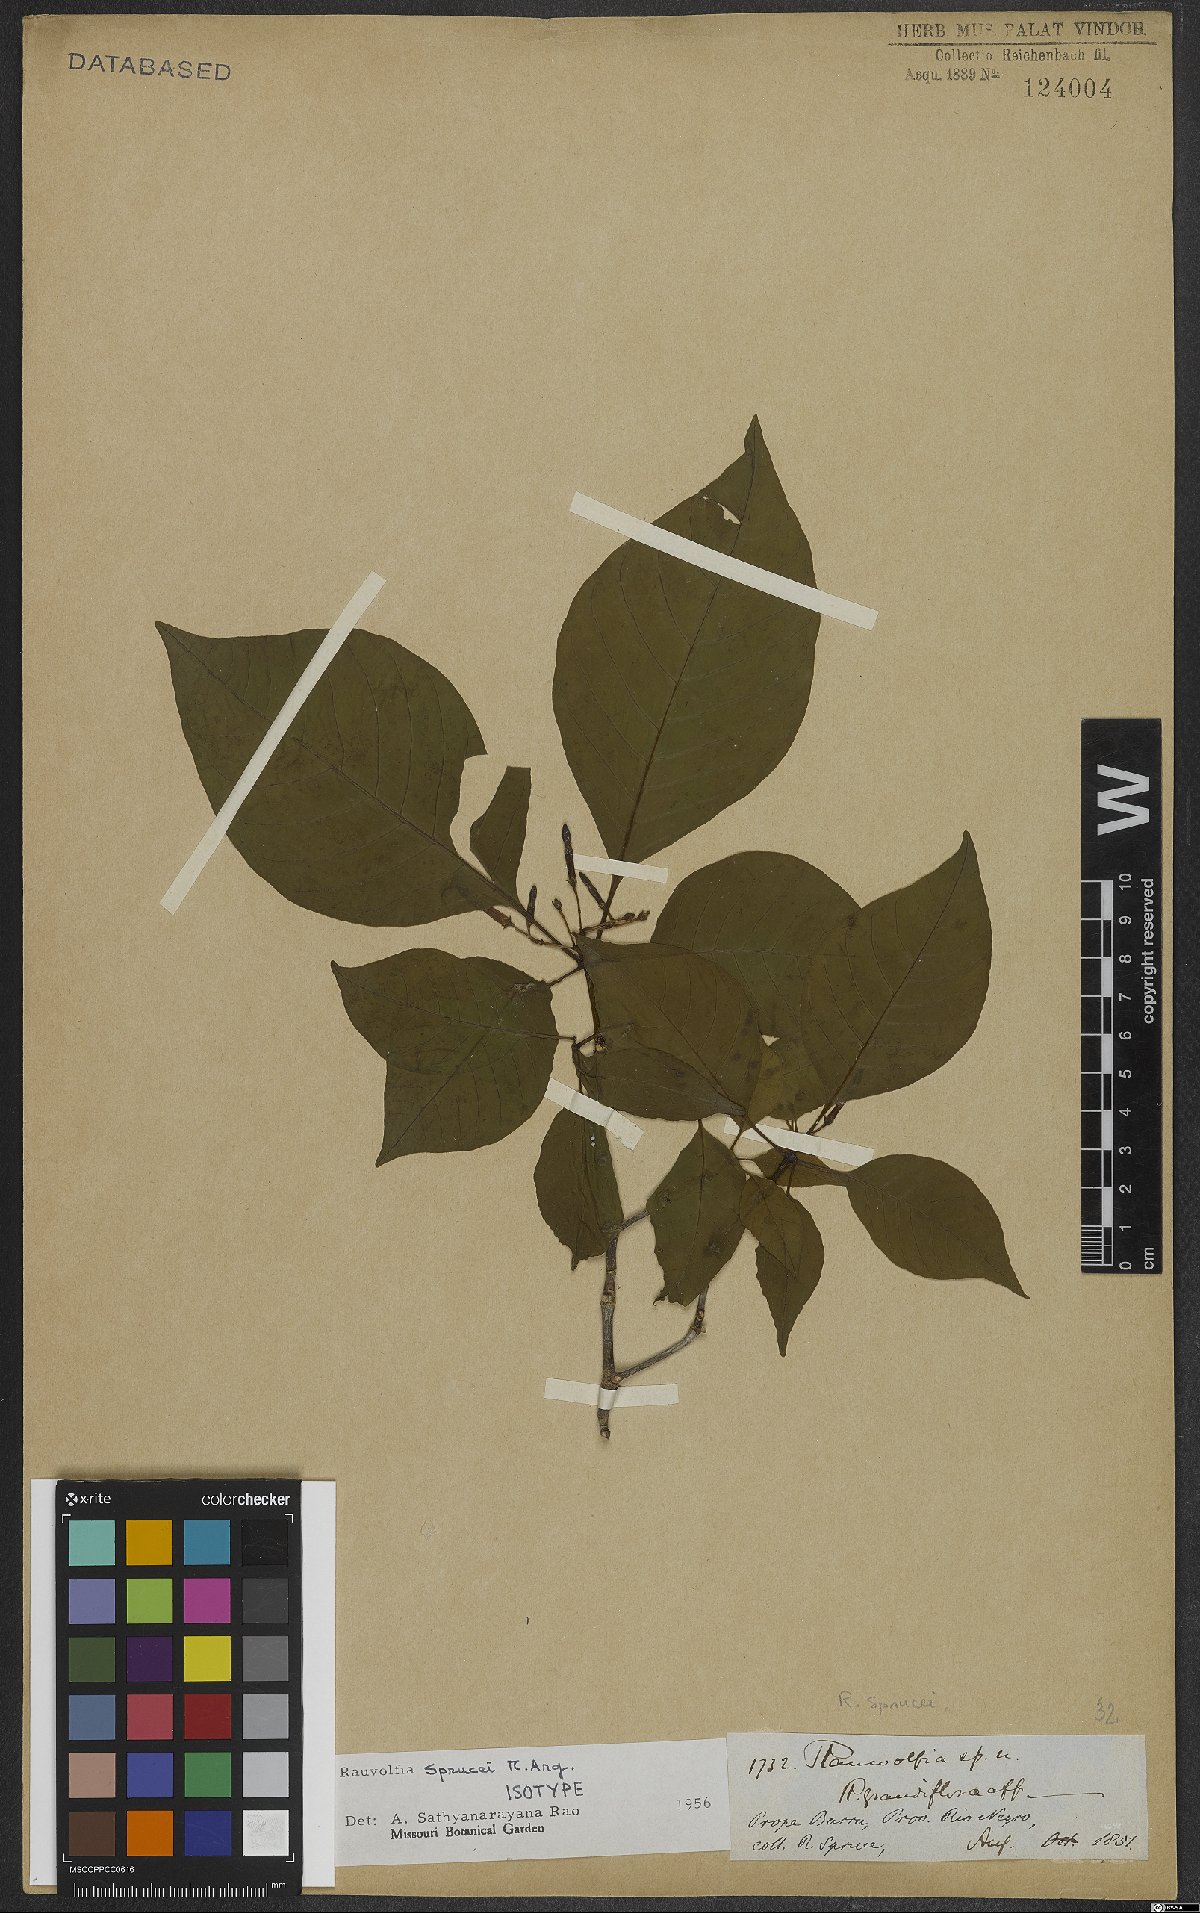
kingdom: Plantae
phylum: Tracheophyta
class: Magnoliopsida
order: Gentianales
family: Apocynaceae
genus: Rauvolfia
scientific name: Rauvolfia sprucei
